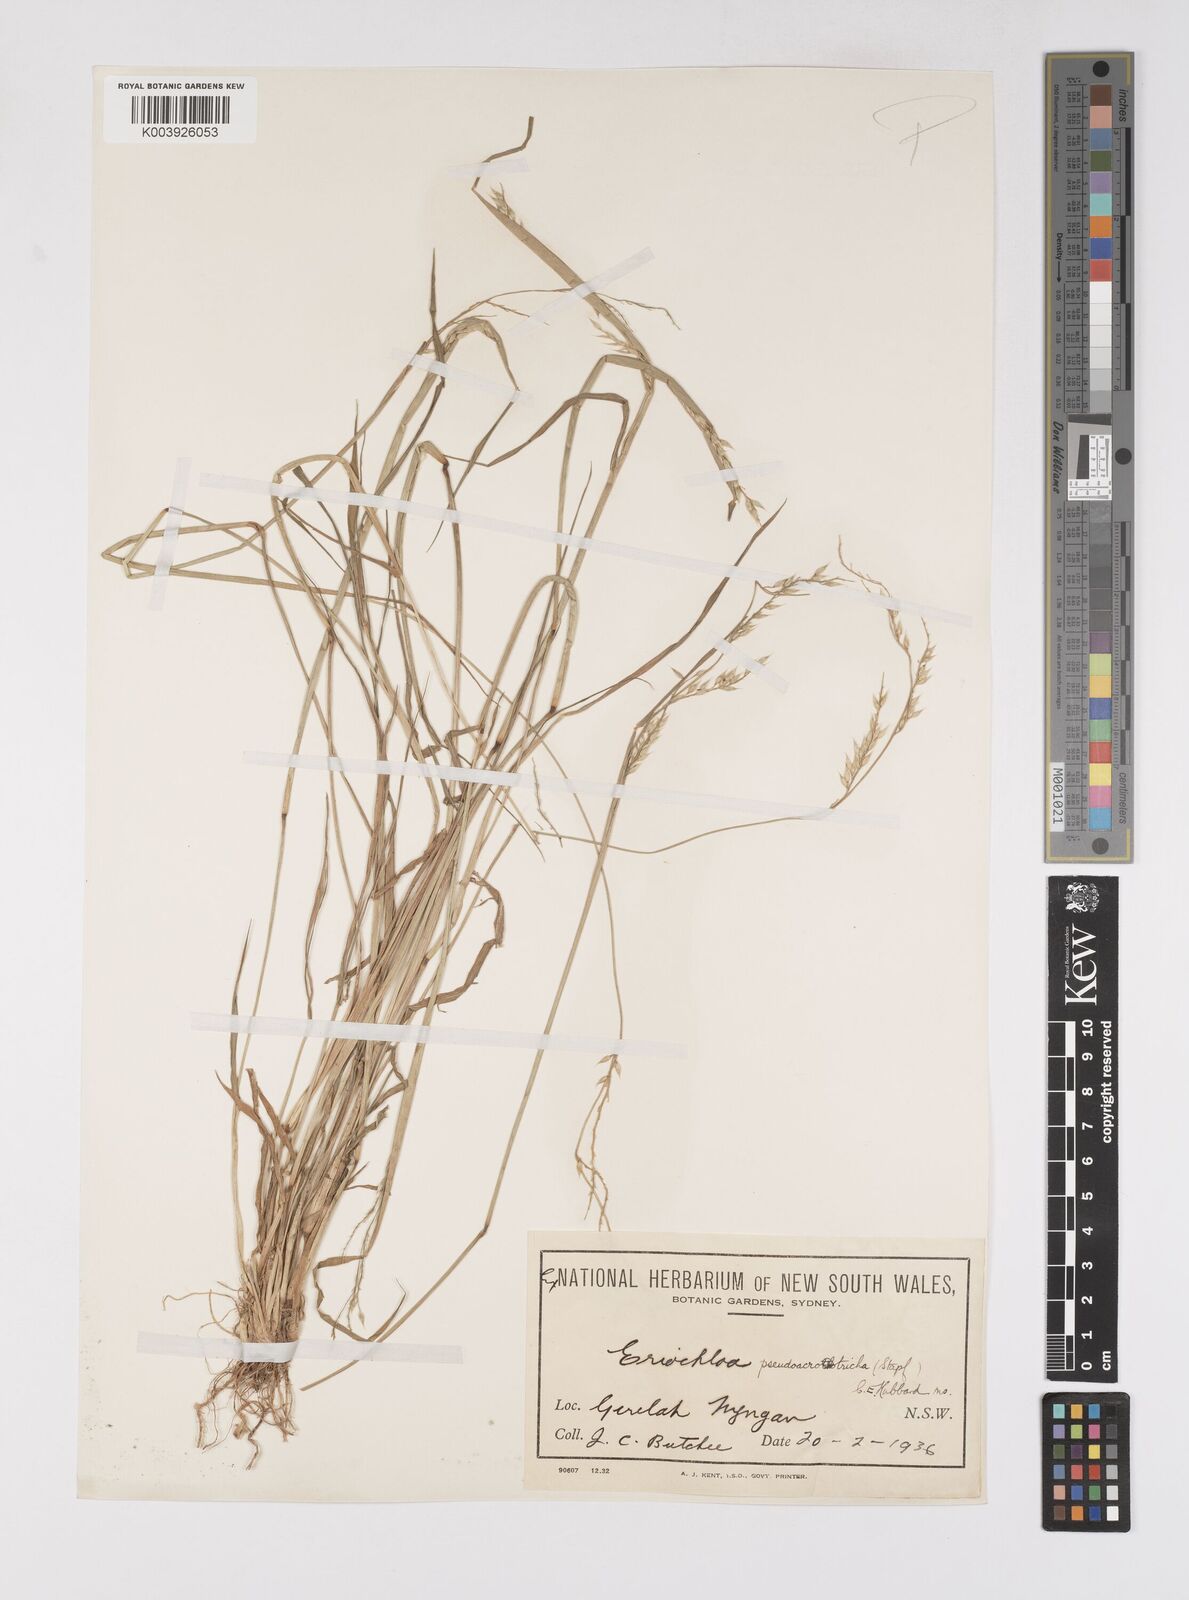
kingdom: Plantae
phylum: Tracheophyta
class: Liliopsida
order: Poales
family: Poaceae
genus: Eriochloa
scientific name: Eriochloa pseudoacrotricha
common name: Perennial cup-grass
